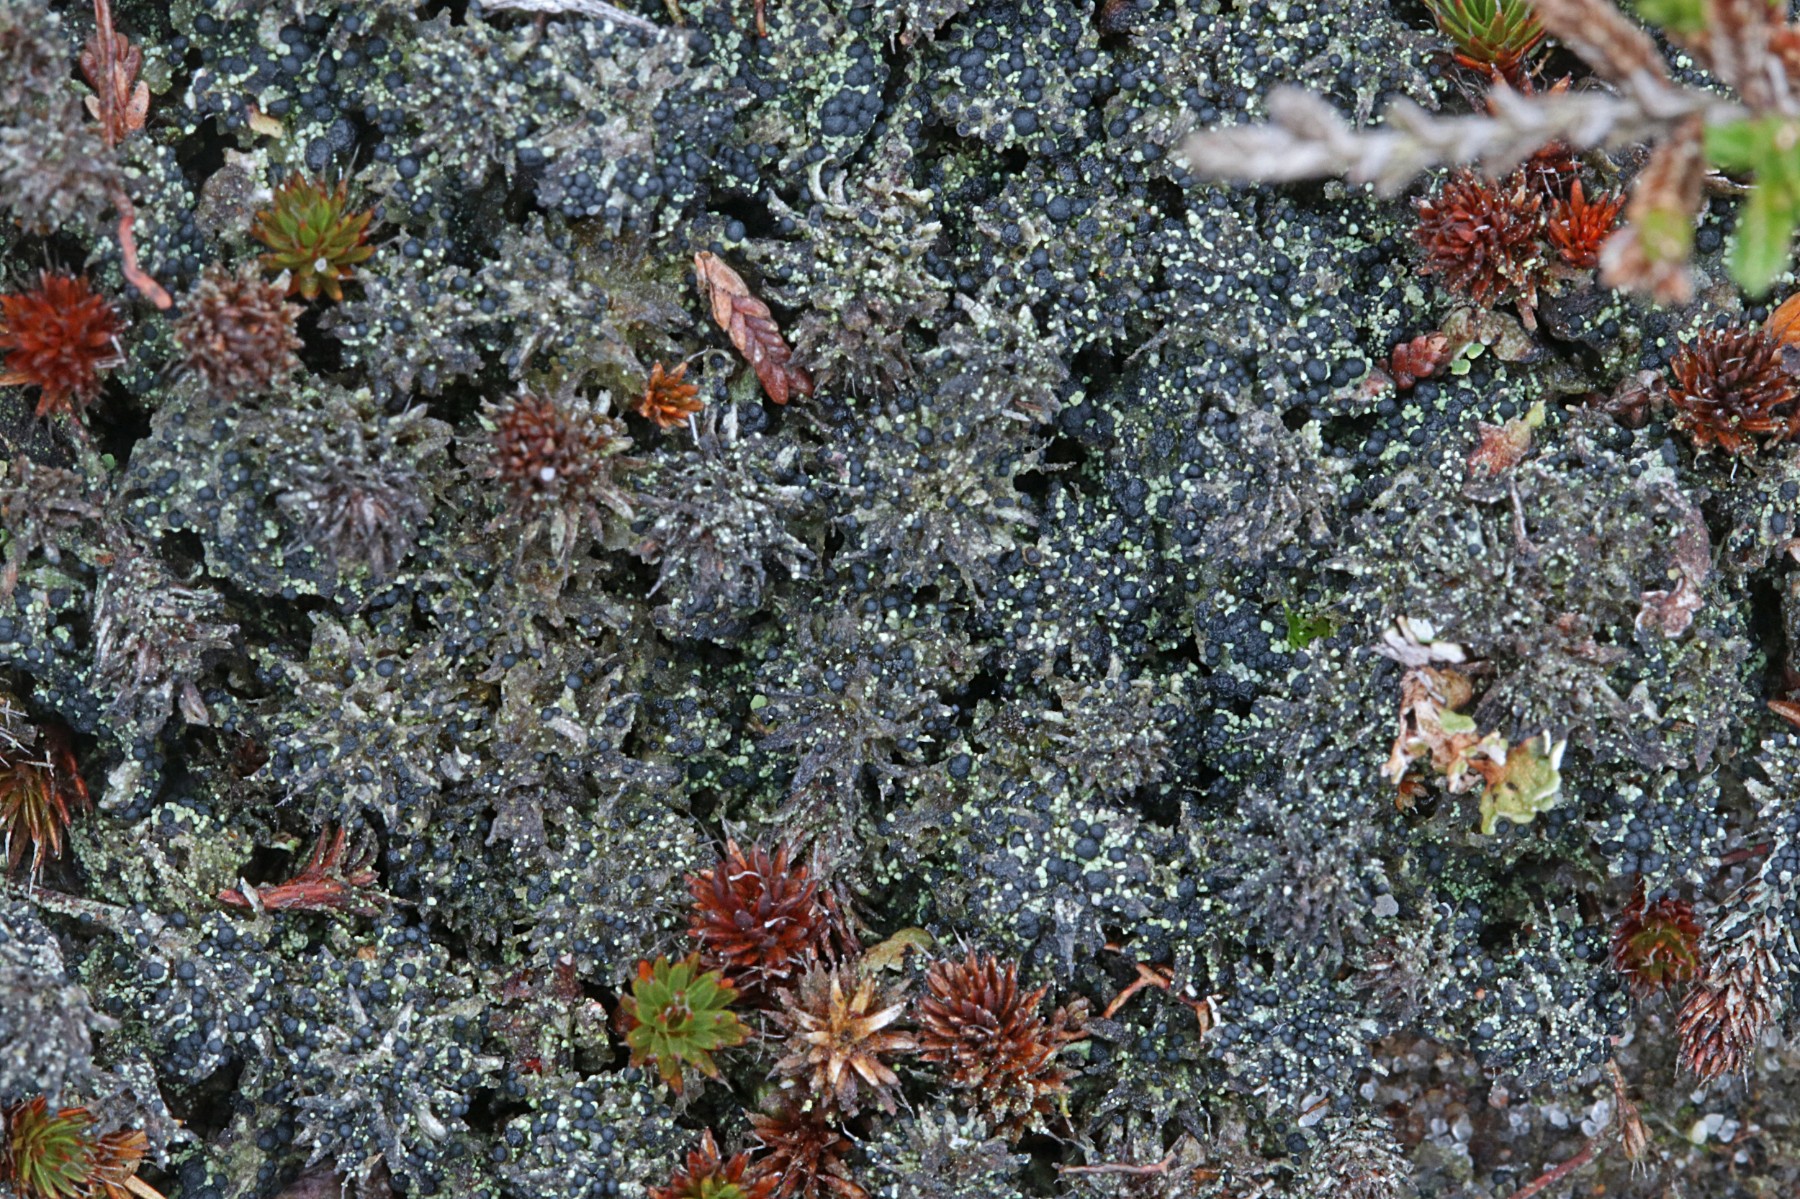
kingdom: Fungi
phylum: Ascomycota
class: Lecanoromycetes
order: Lecanorales
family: Byssolomataceae
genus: Micarea
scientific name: Micarea lignaria
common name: tørve-knaplav
